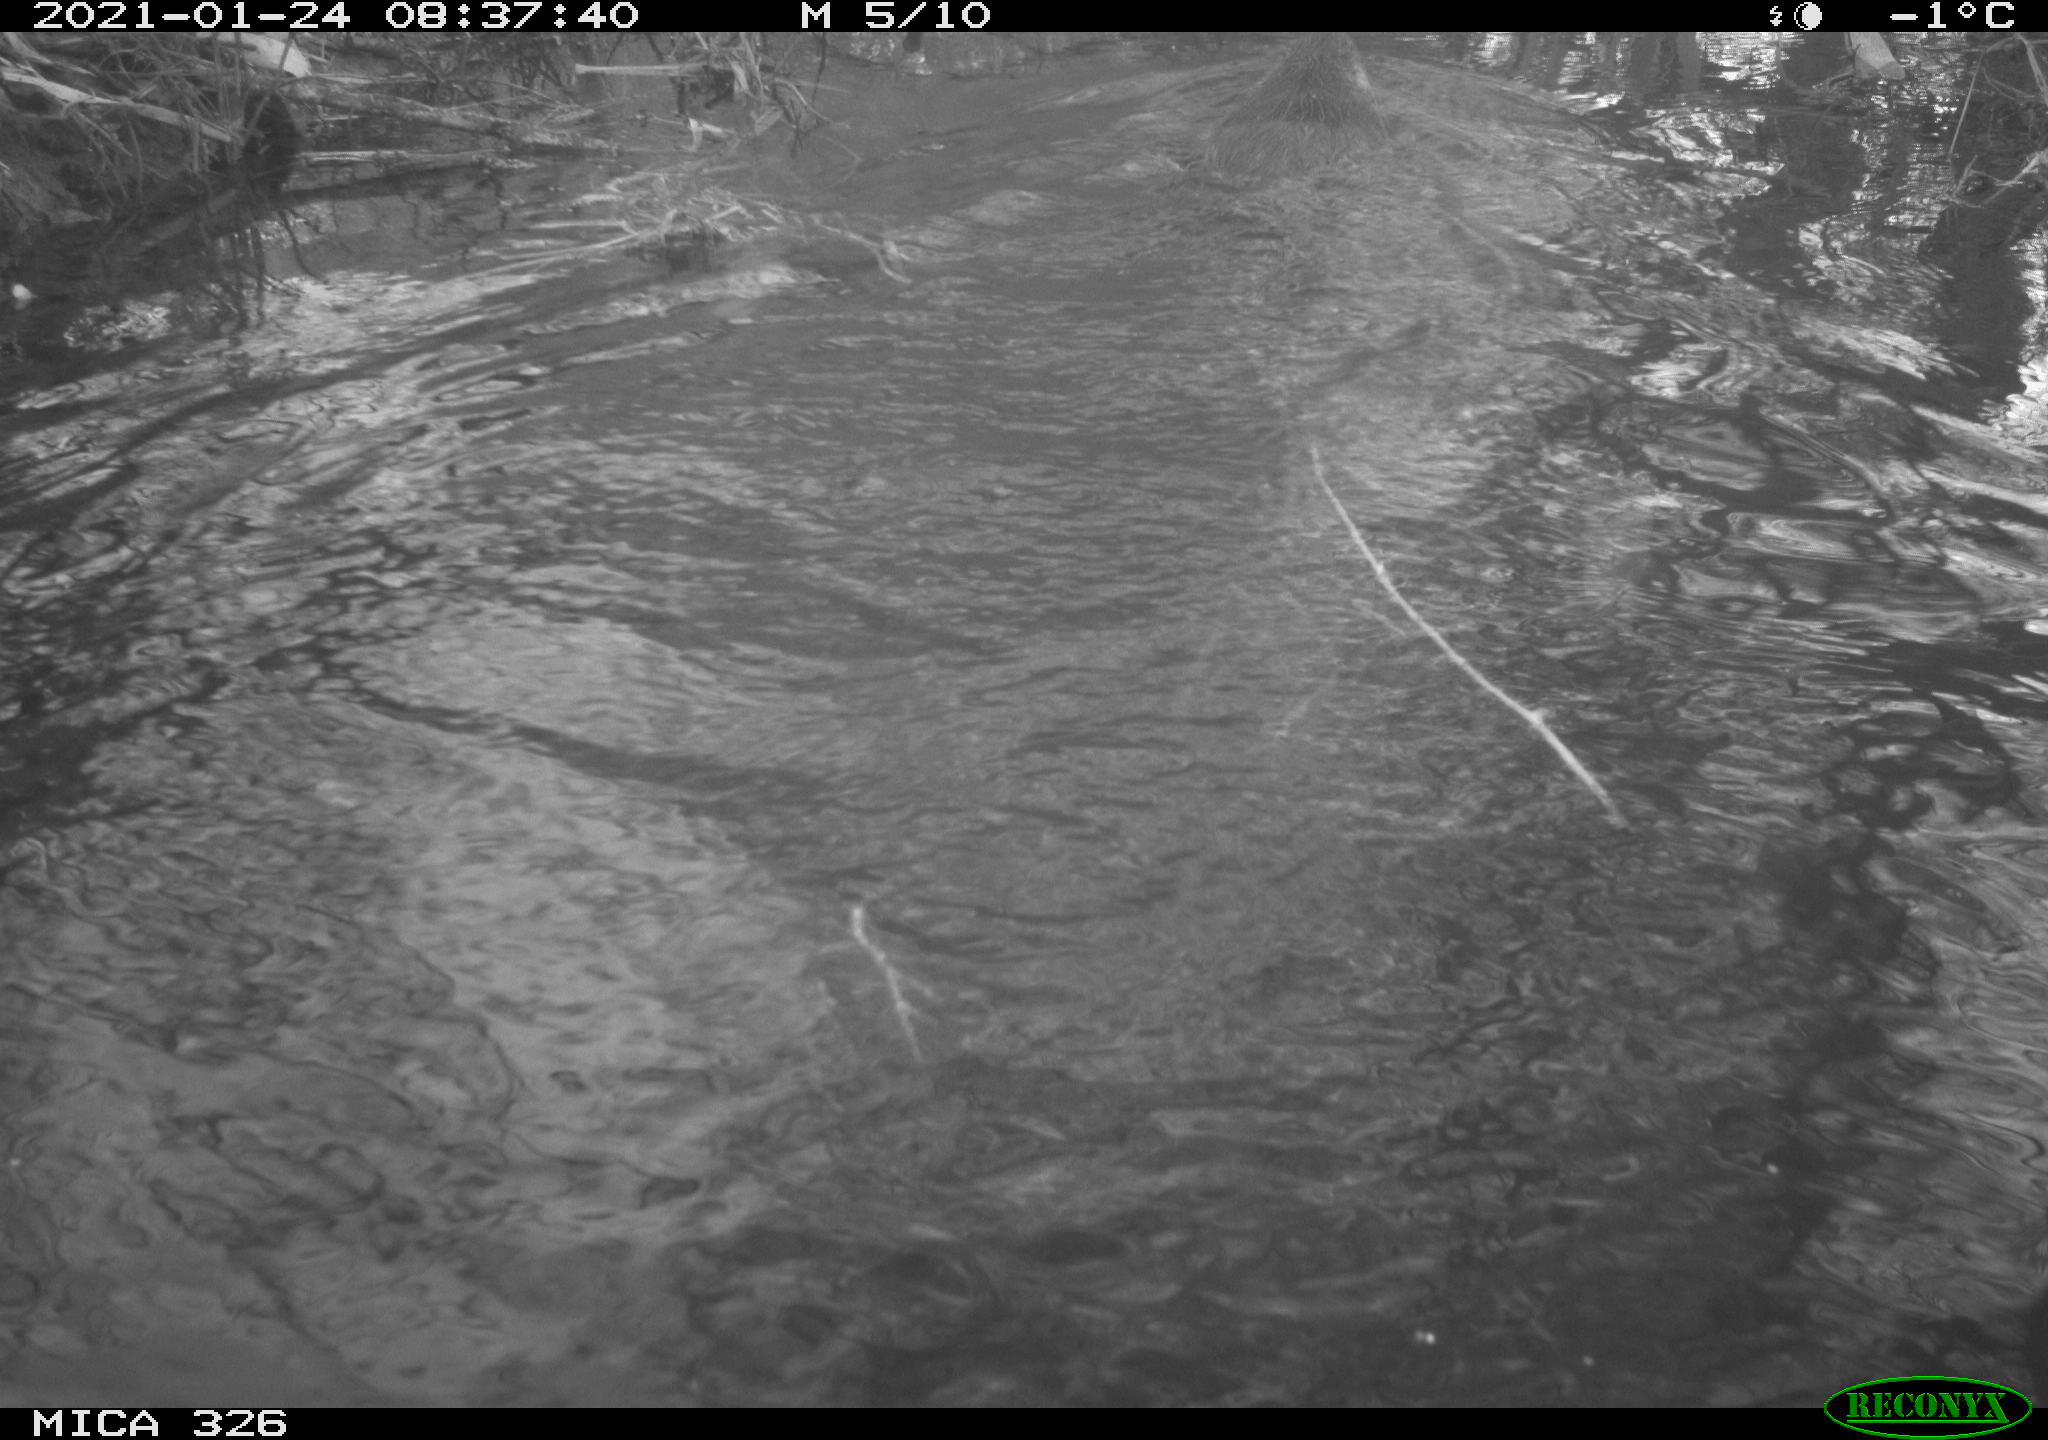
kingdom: Animalia
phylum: Chordata
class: Mammalia
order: Rodentia
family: Myocastoridae
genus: Myocastor
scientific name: Myocastor coypus
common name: Coypu
